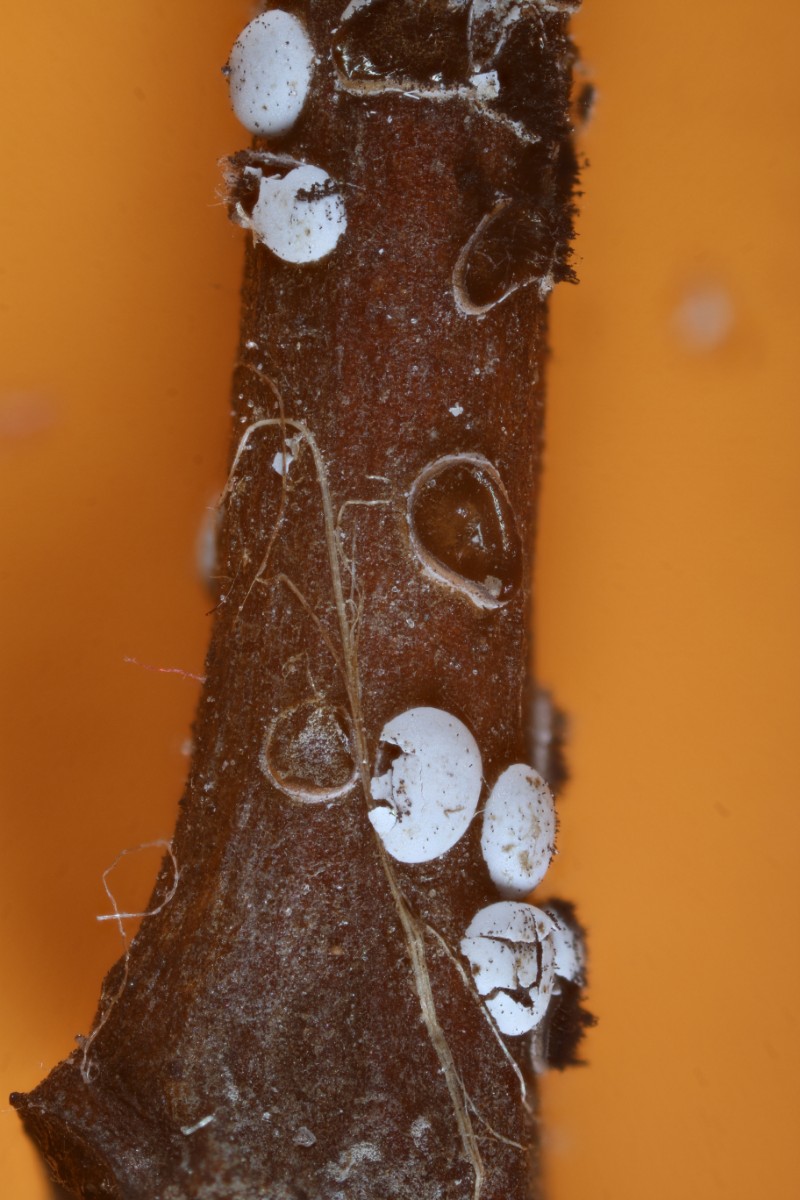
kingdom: Protozoa
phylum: Mycetozoa
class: Myxomycetes
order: Physarales
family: Didymiaceae
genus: Didymium
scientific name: Didymium difforme
